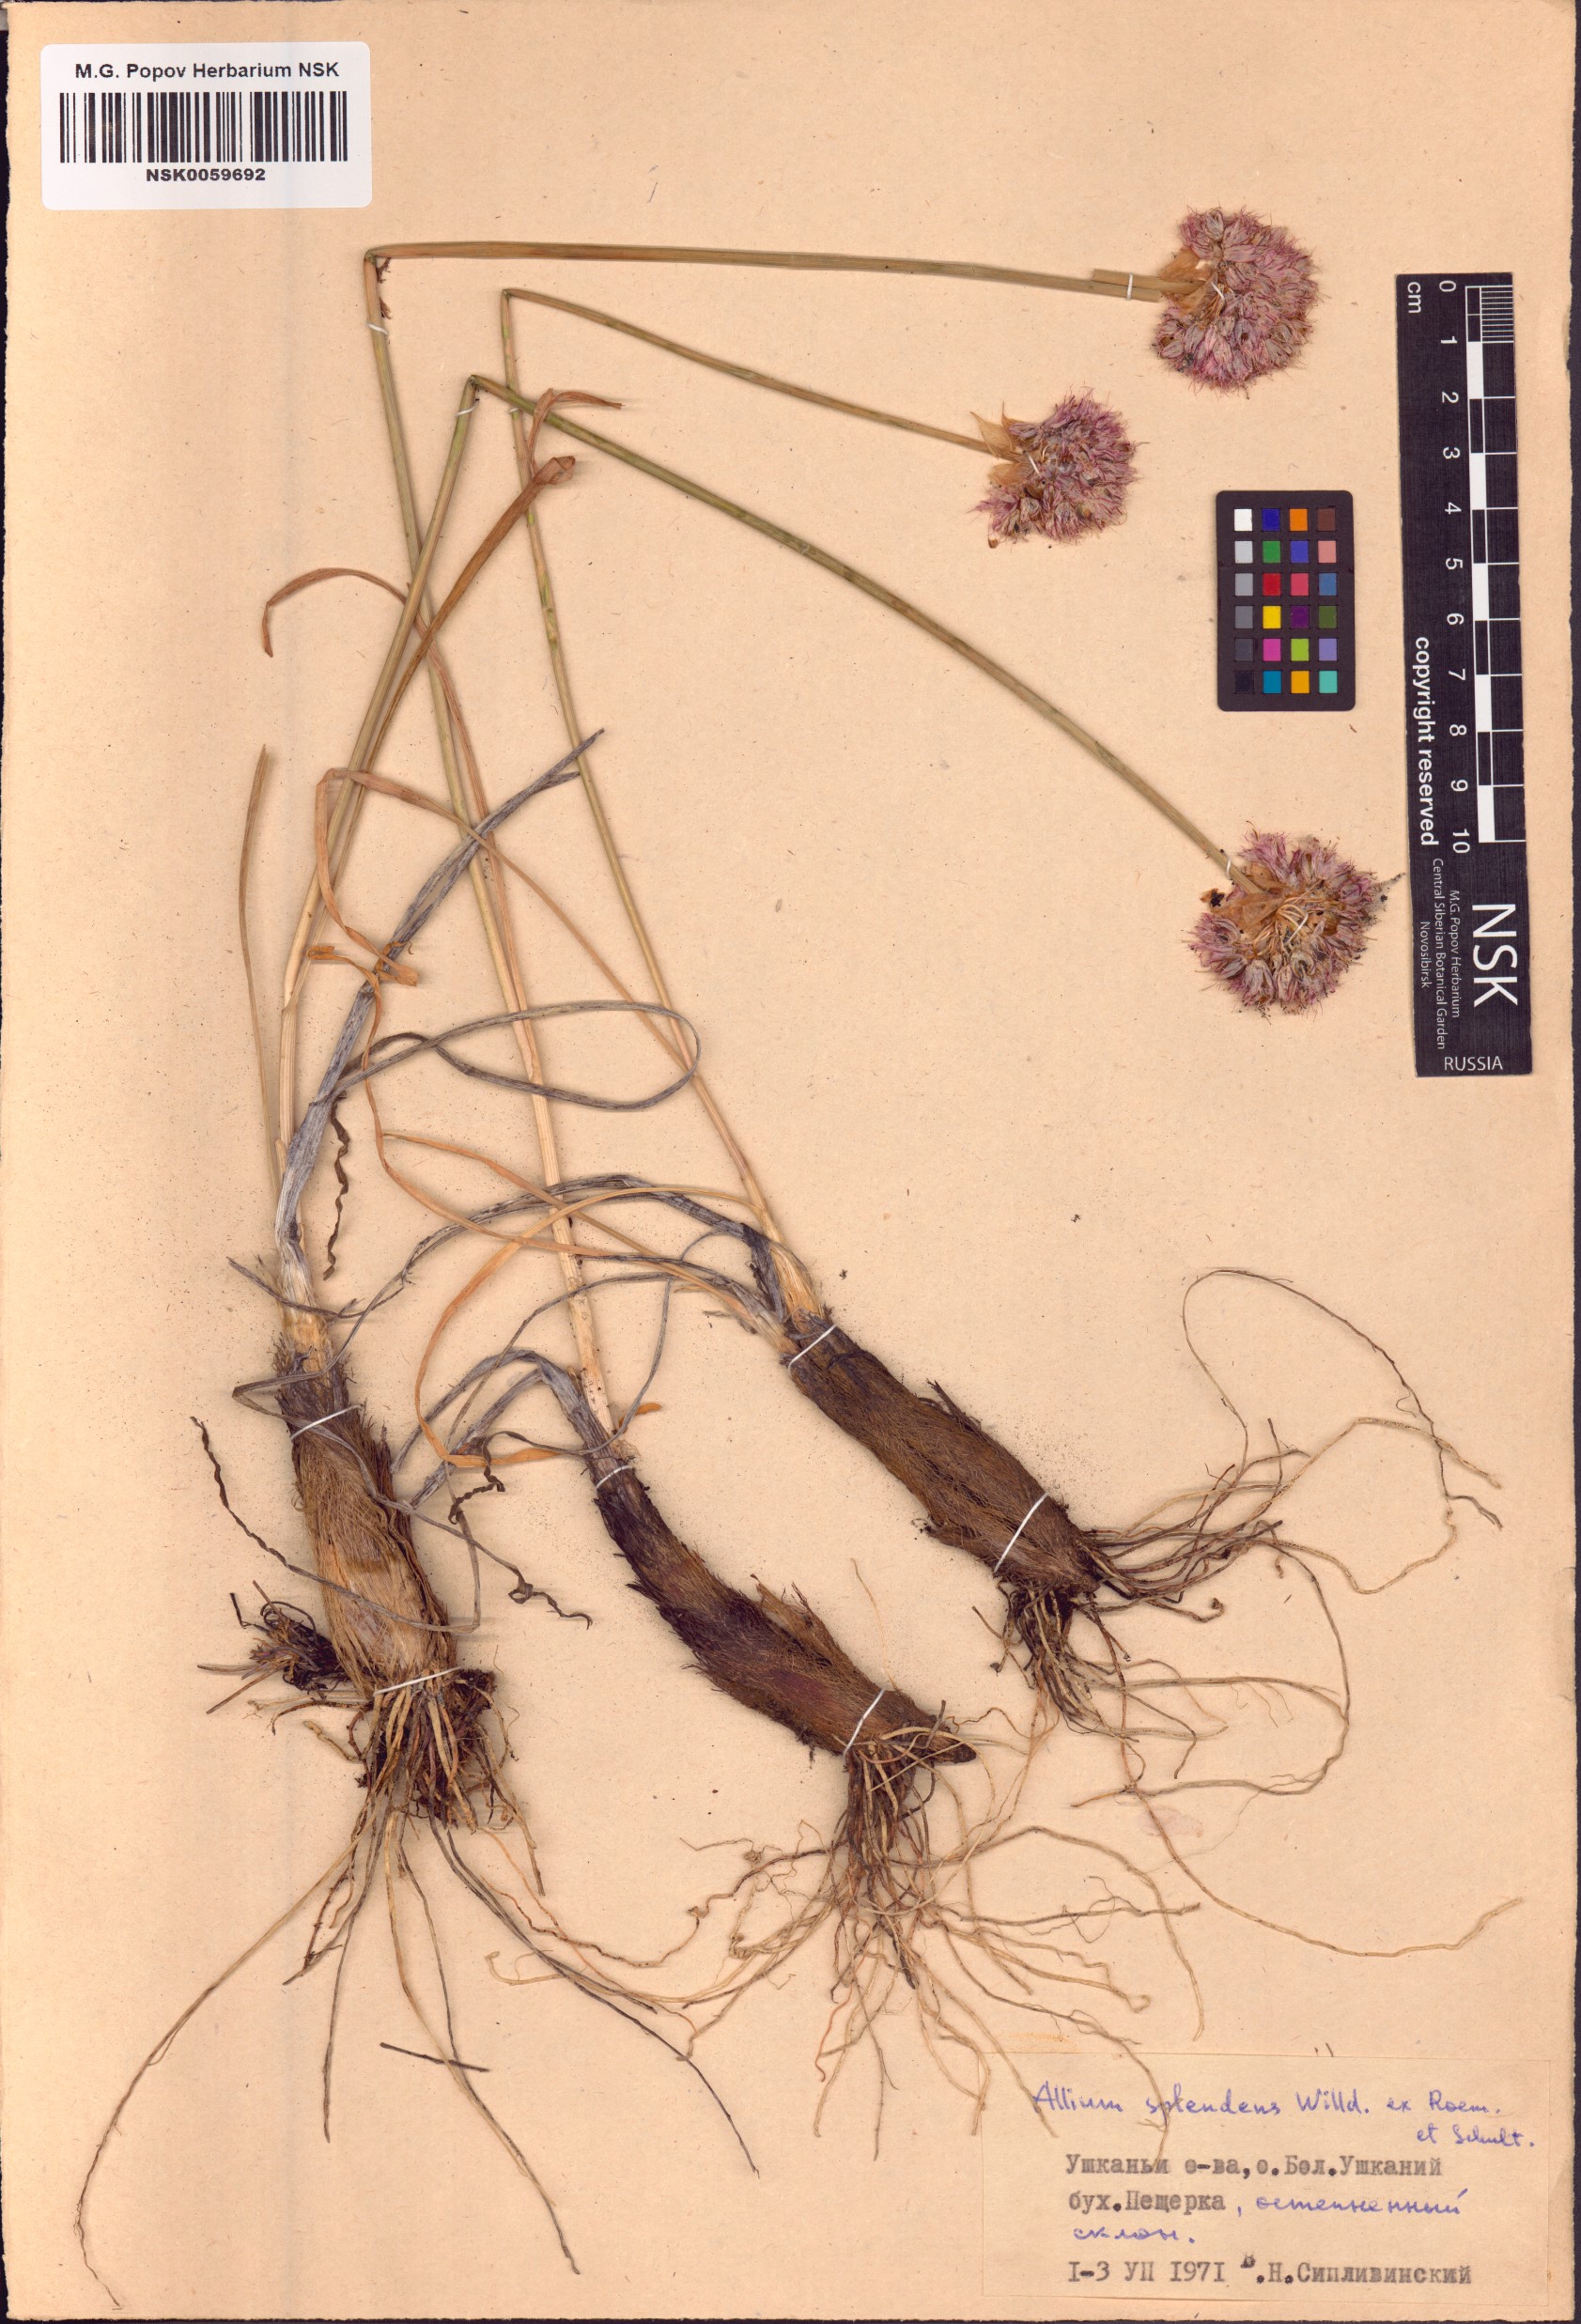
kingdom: Plantae
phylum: Tracheophyta
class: Liliopsida
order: Asparagales
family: Amaryllidaceae
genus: Allium
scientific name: Allium splendens
